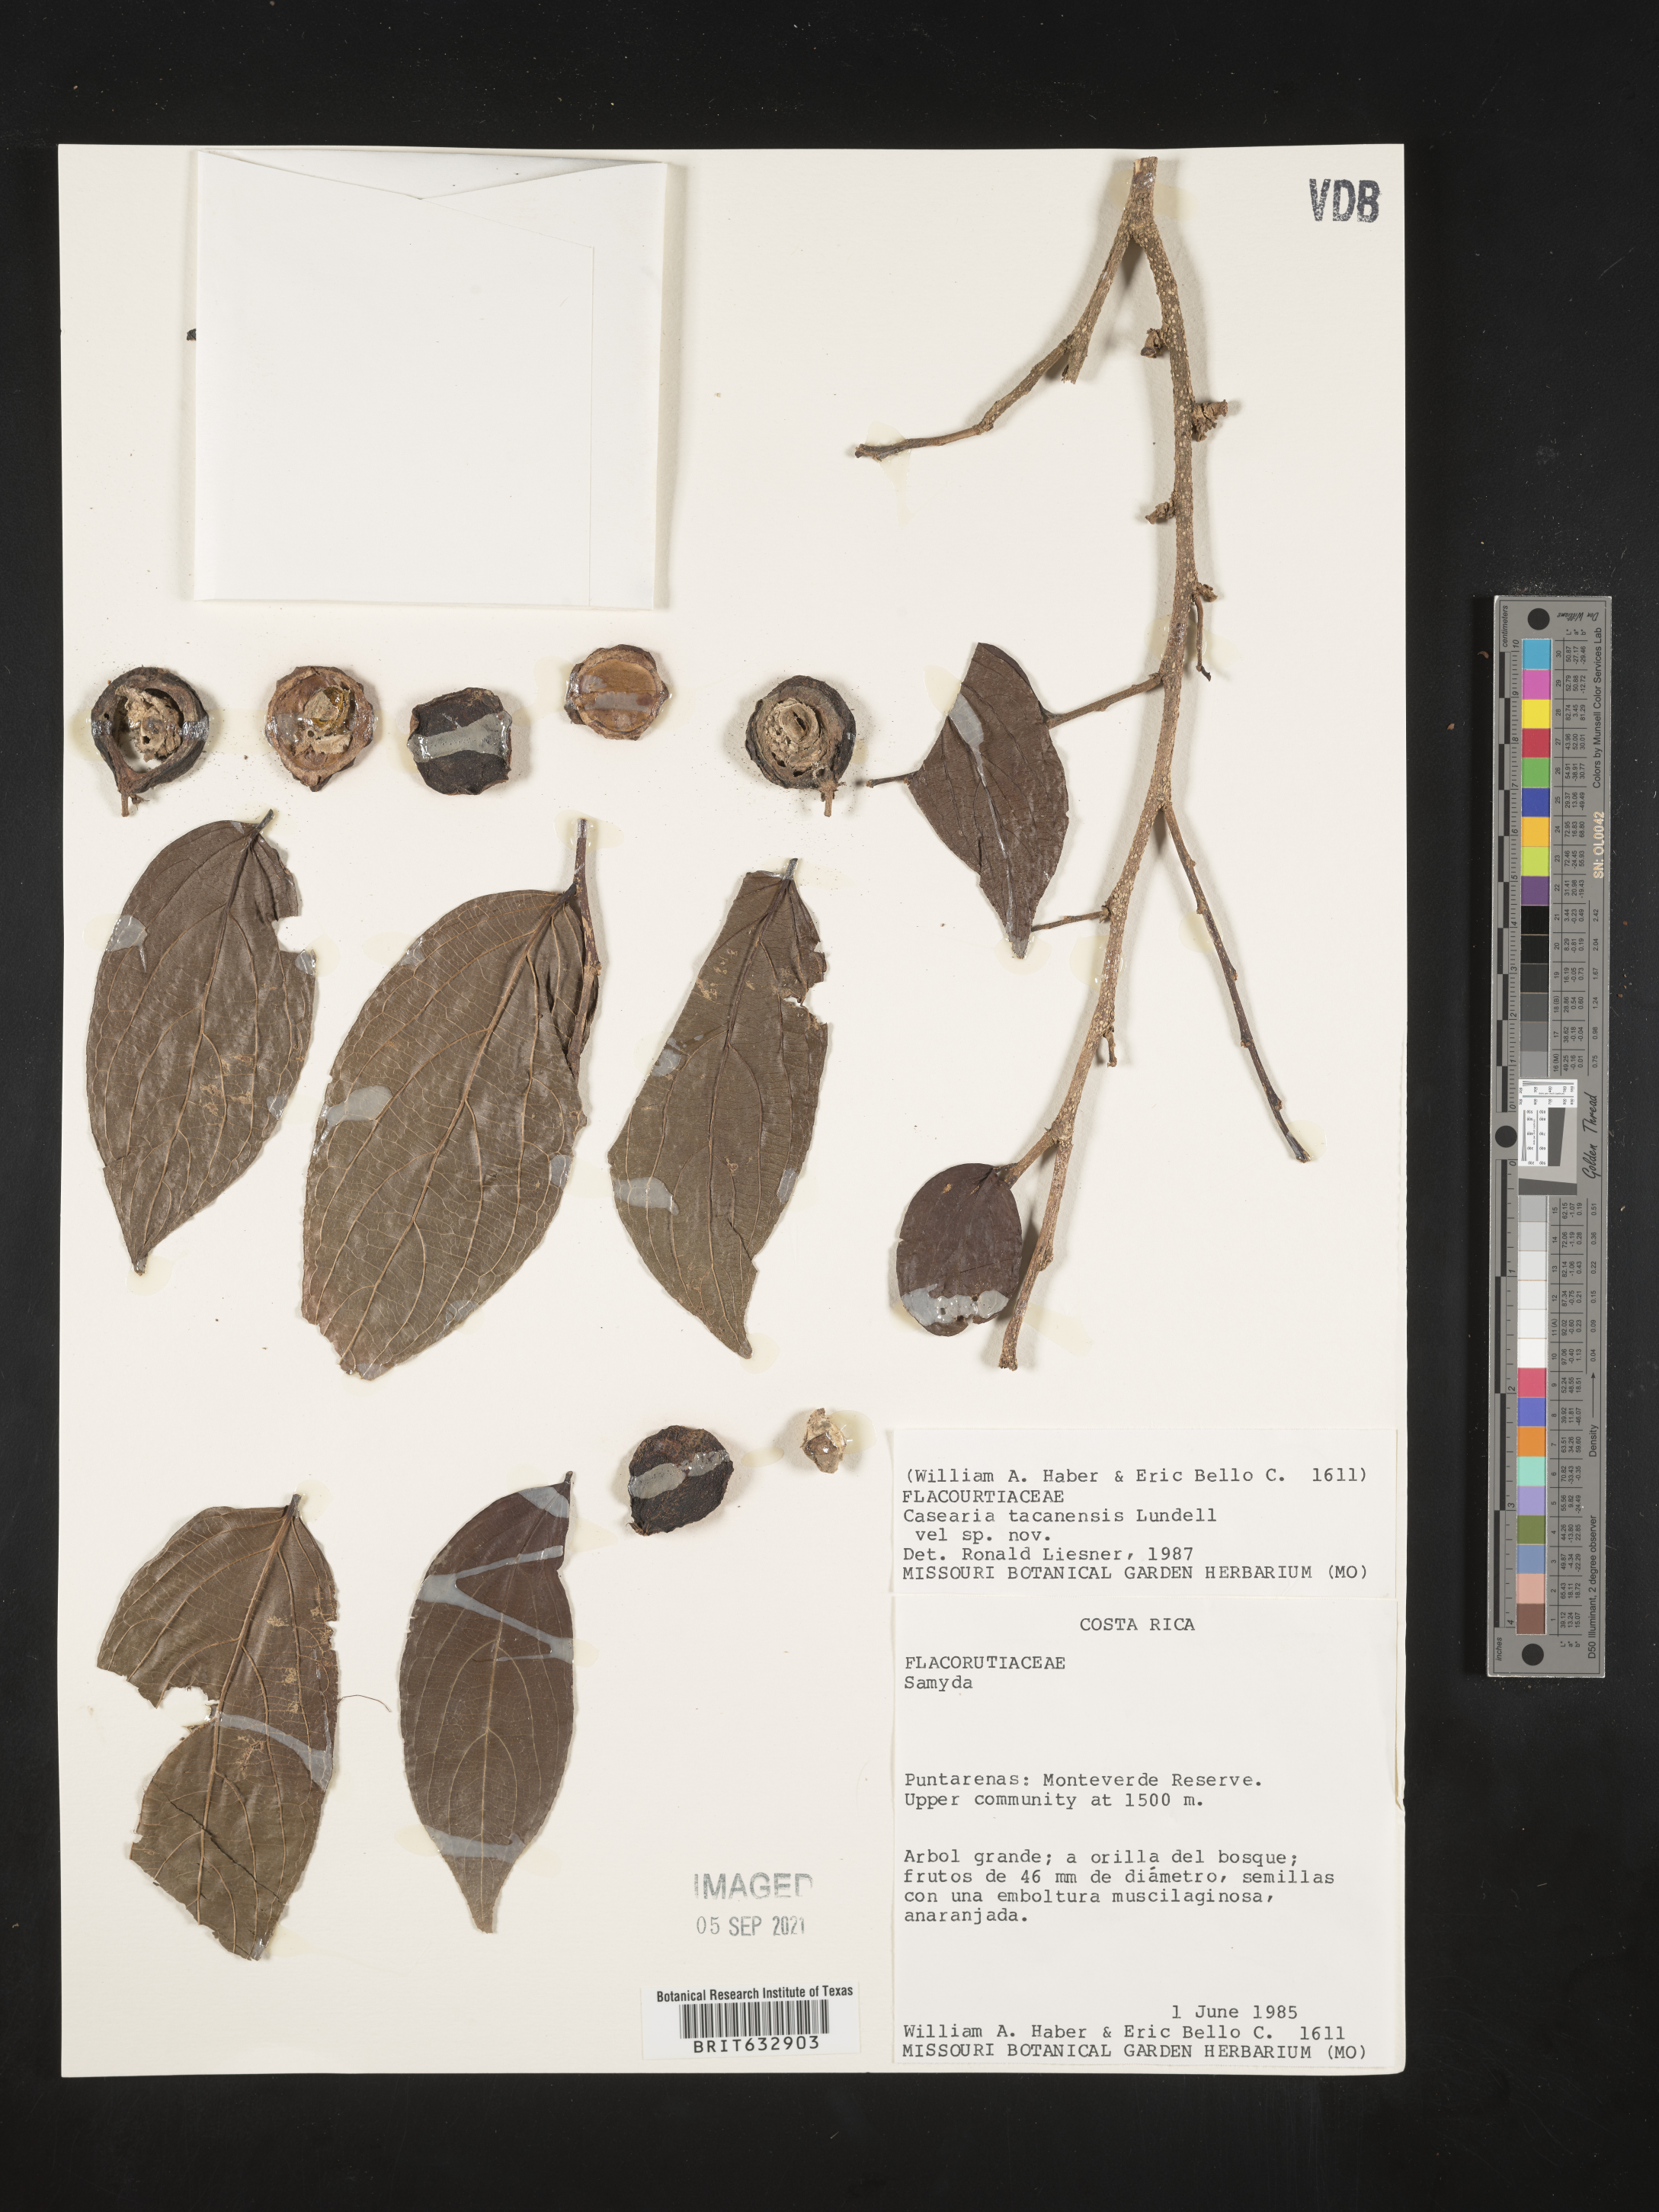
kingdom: Plantae
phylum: Tracheophyta
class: Magnoliopsida
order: Malpighiales
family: Salicaceae
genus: Casearia
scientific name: Casearia
